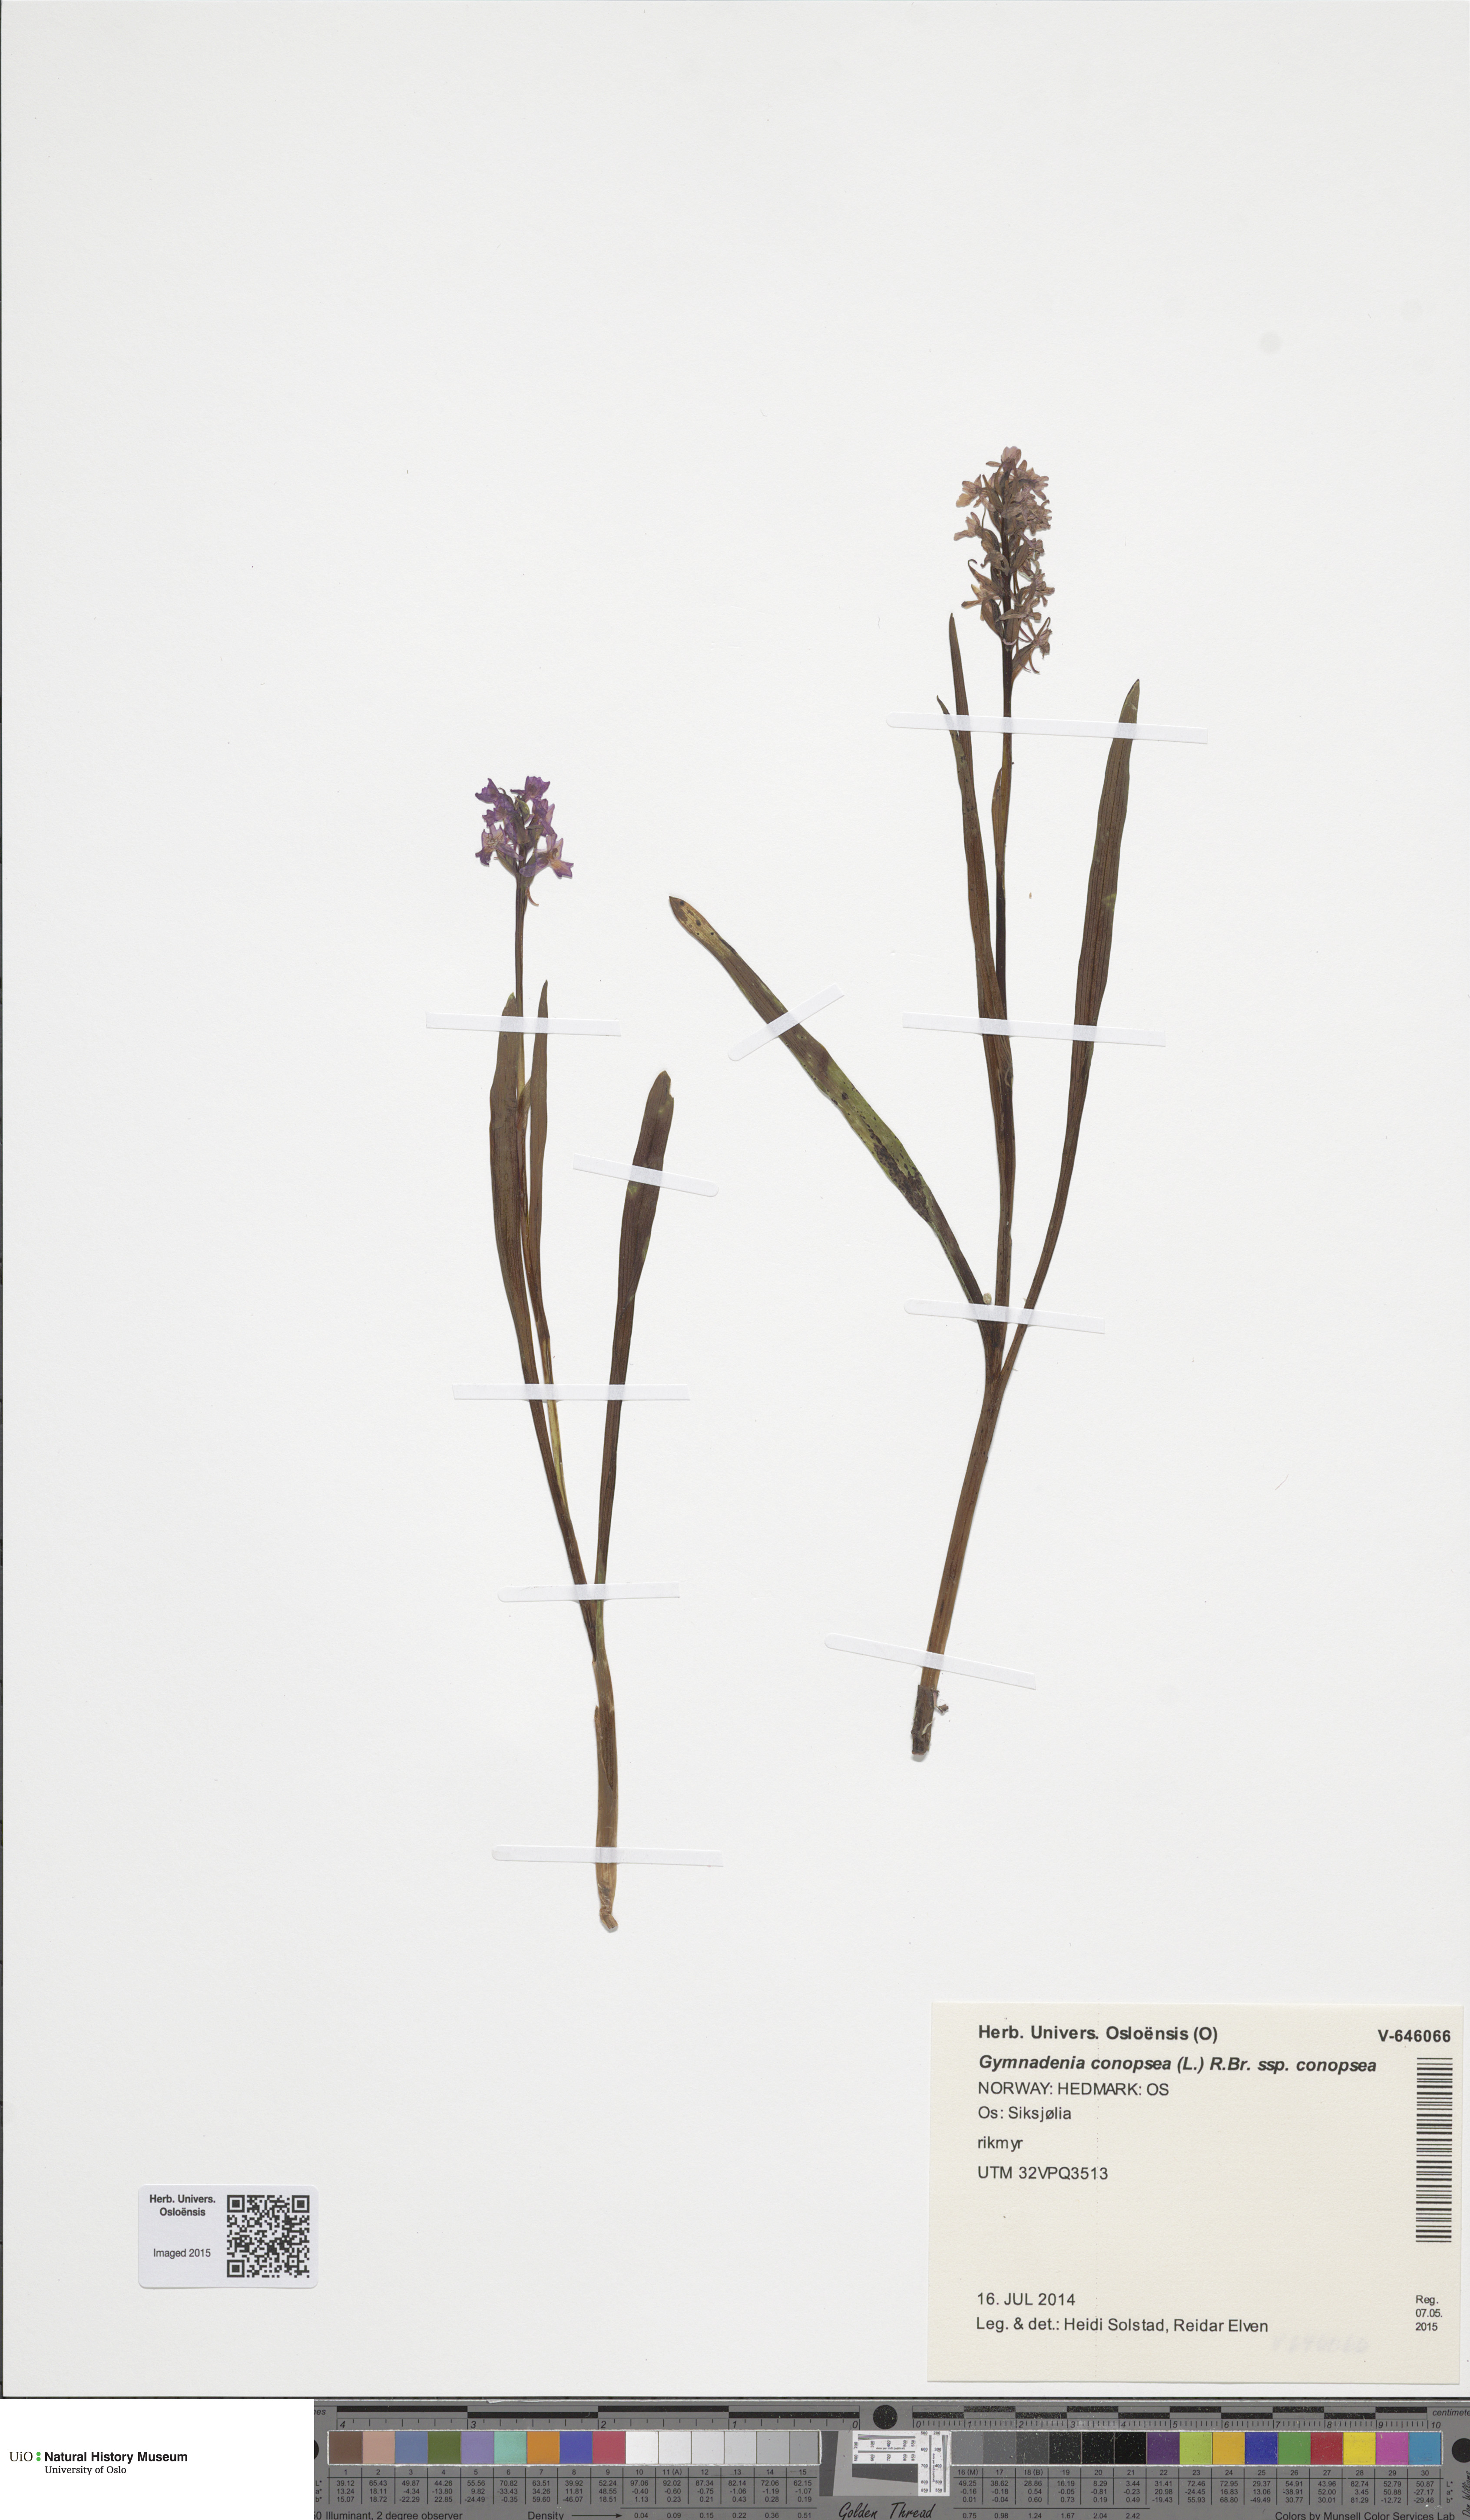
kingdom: Plantae
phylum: Tracheophyta
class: Liliopsida
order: Asparagales
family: Orchidaceae
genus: Gymnadenia
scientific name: Gymnadenia conopsea
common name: Fragrant orchid
